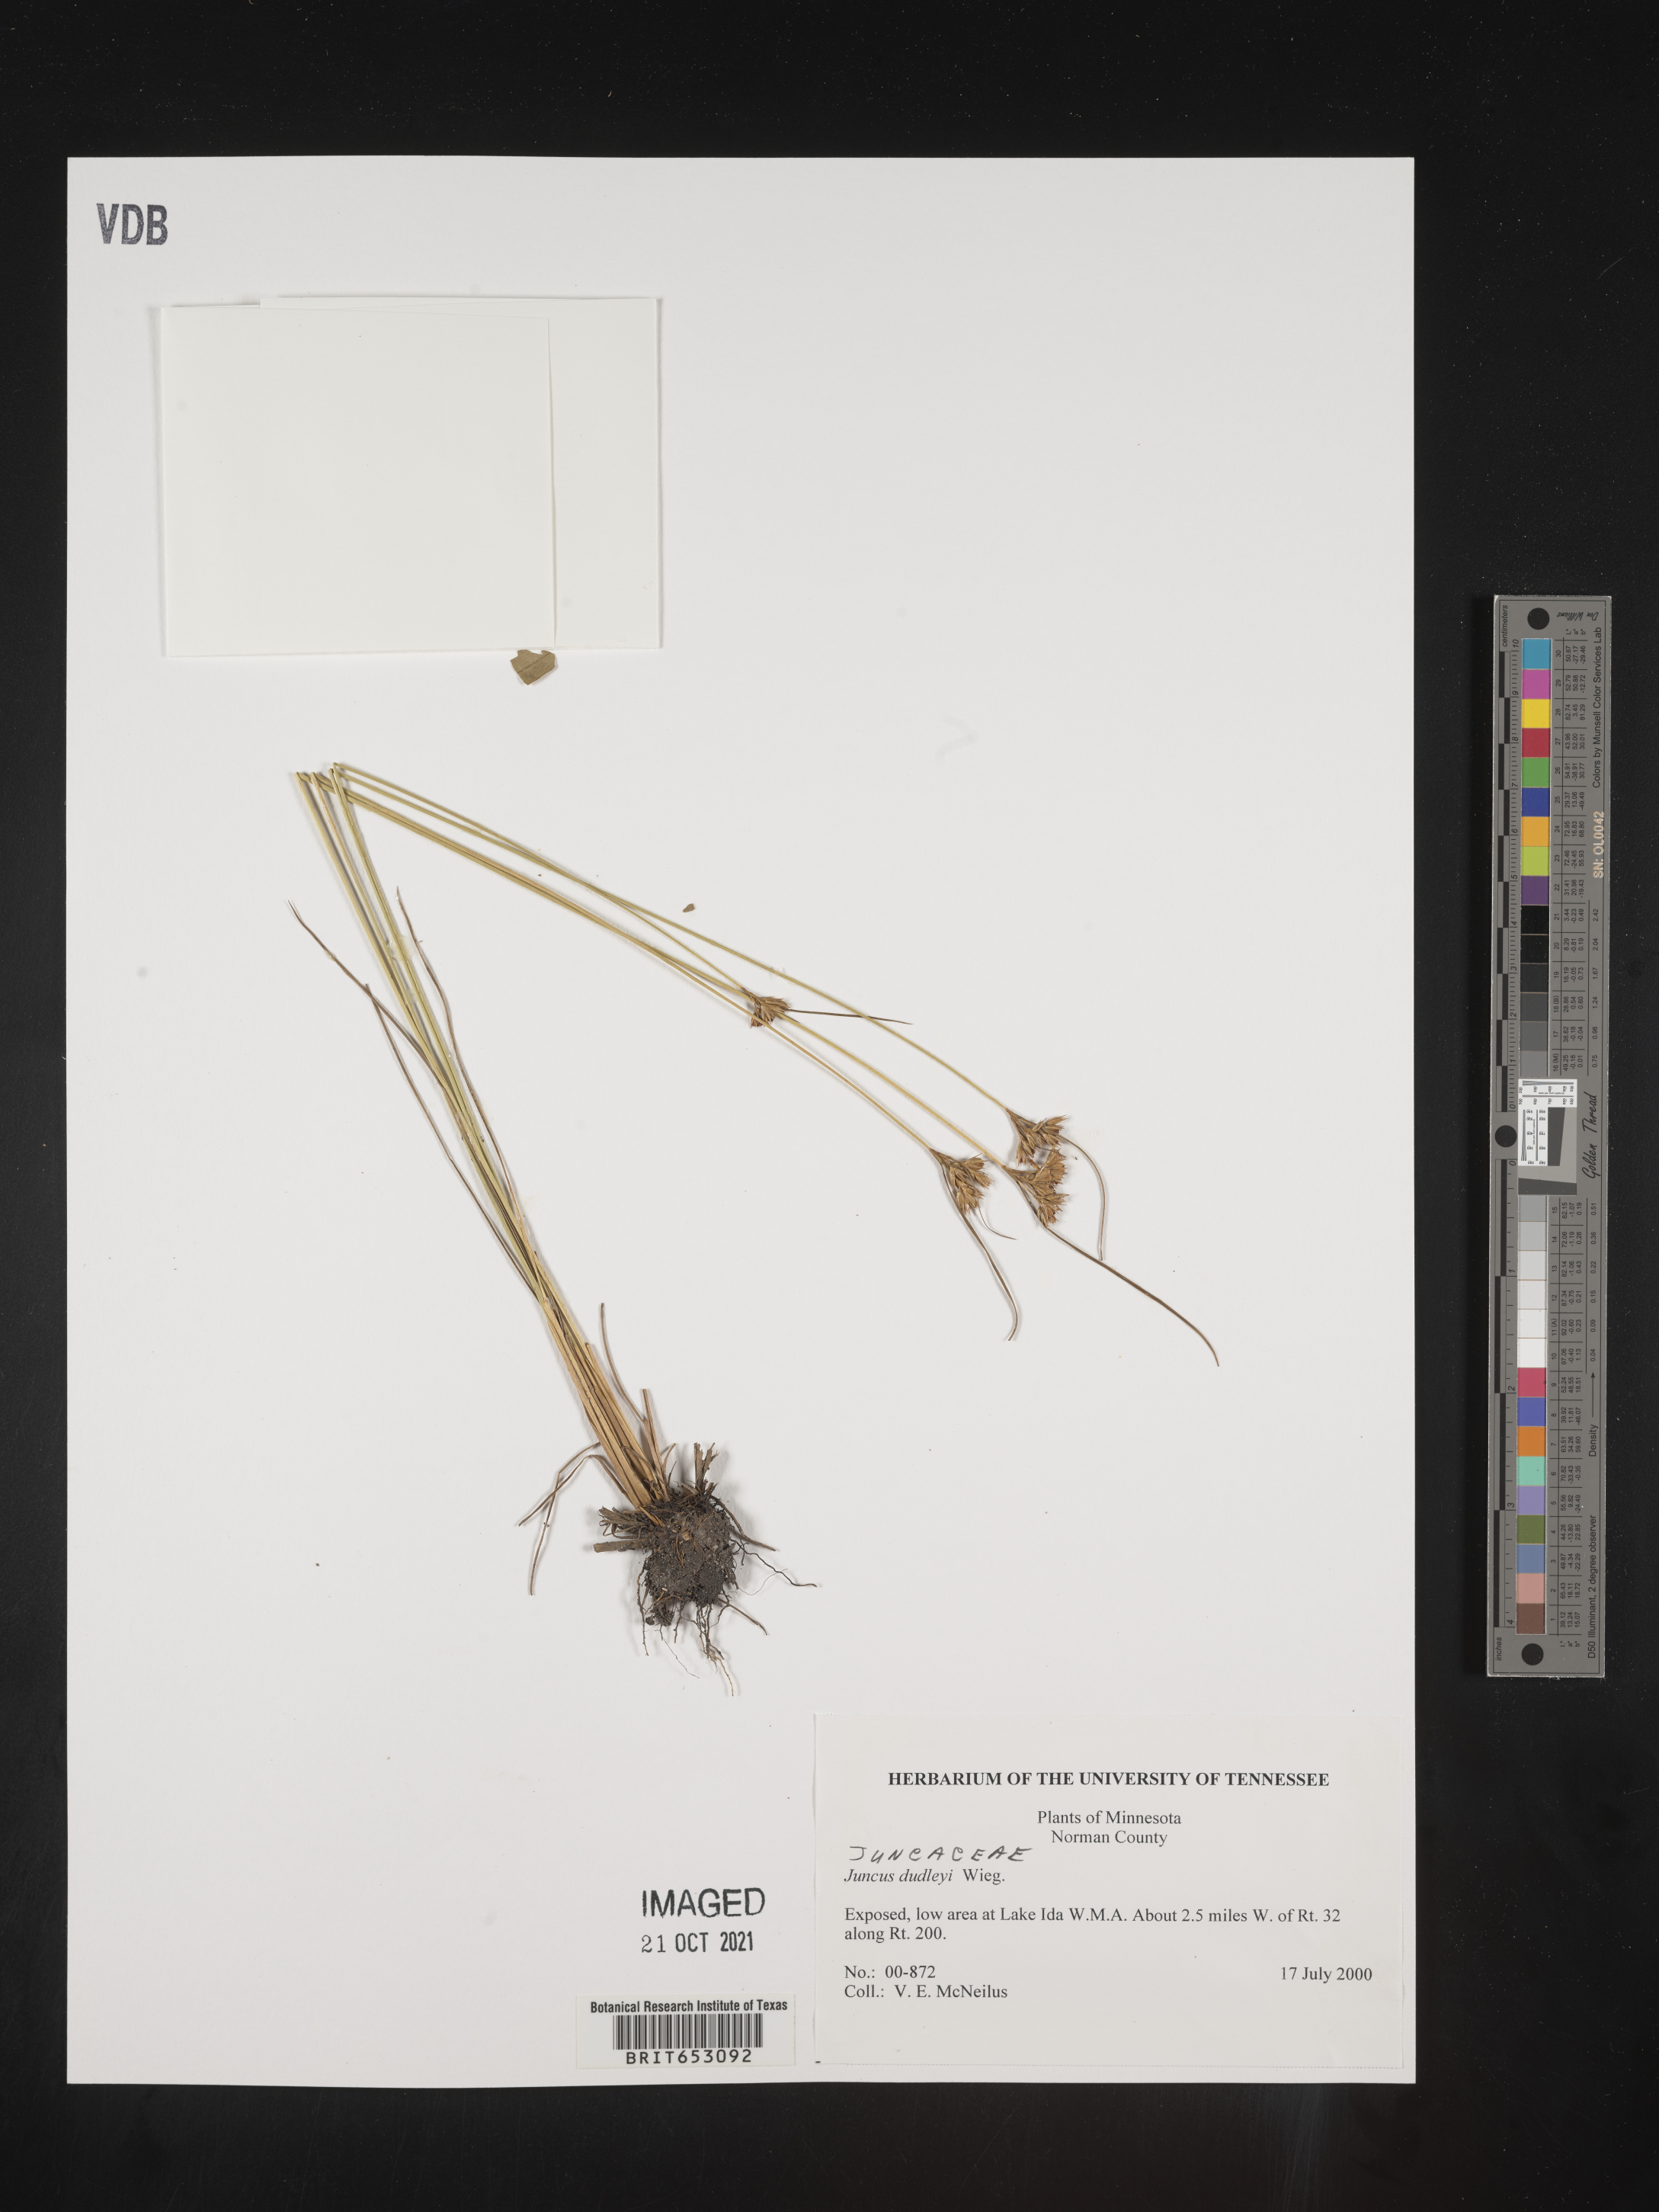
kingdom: Plantae
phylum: Tracheophyta
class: Liliopsida
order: Poales
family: Juncaceae
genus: Juncus
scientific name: Juncus dudleyi
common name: Dudley's rush
